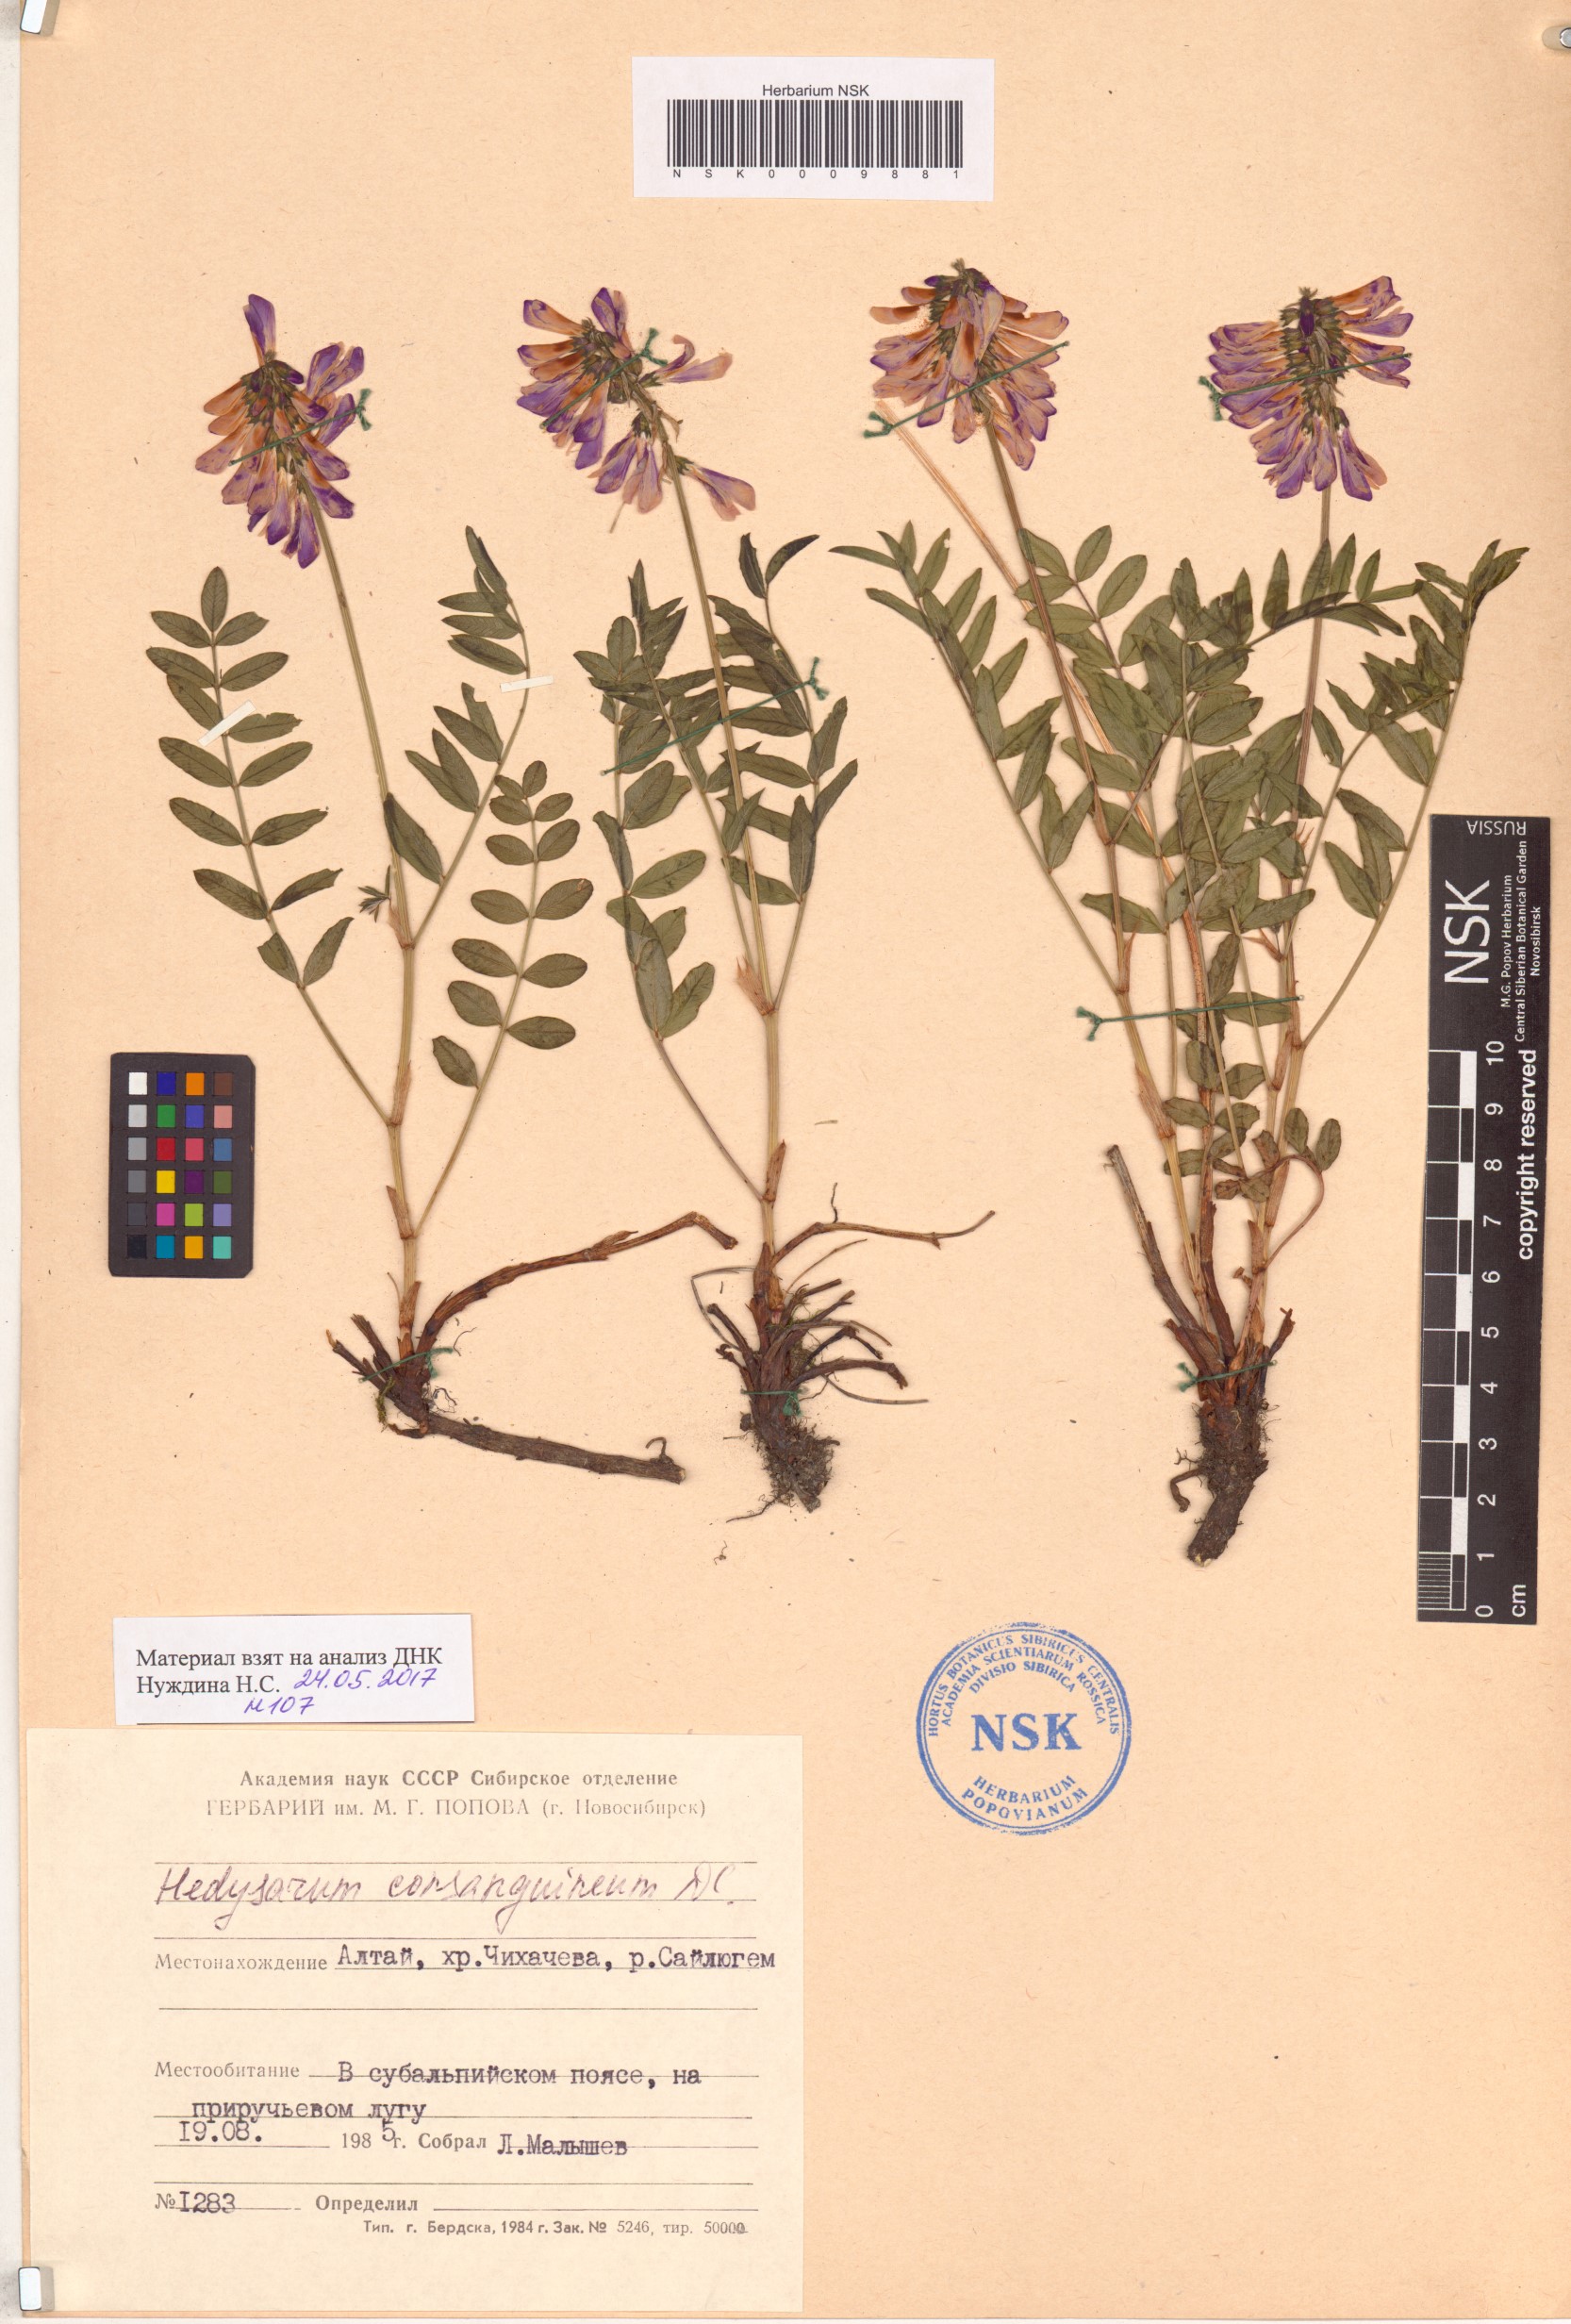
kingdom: Plantae
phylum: Tracheophyta
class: Magnoliopsida
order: Fabales
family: Fabaceae
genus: Hedysarum
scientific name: Hedysarum consanguineum
